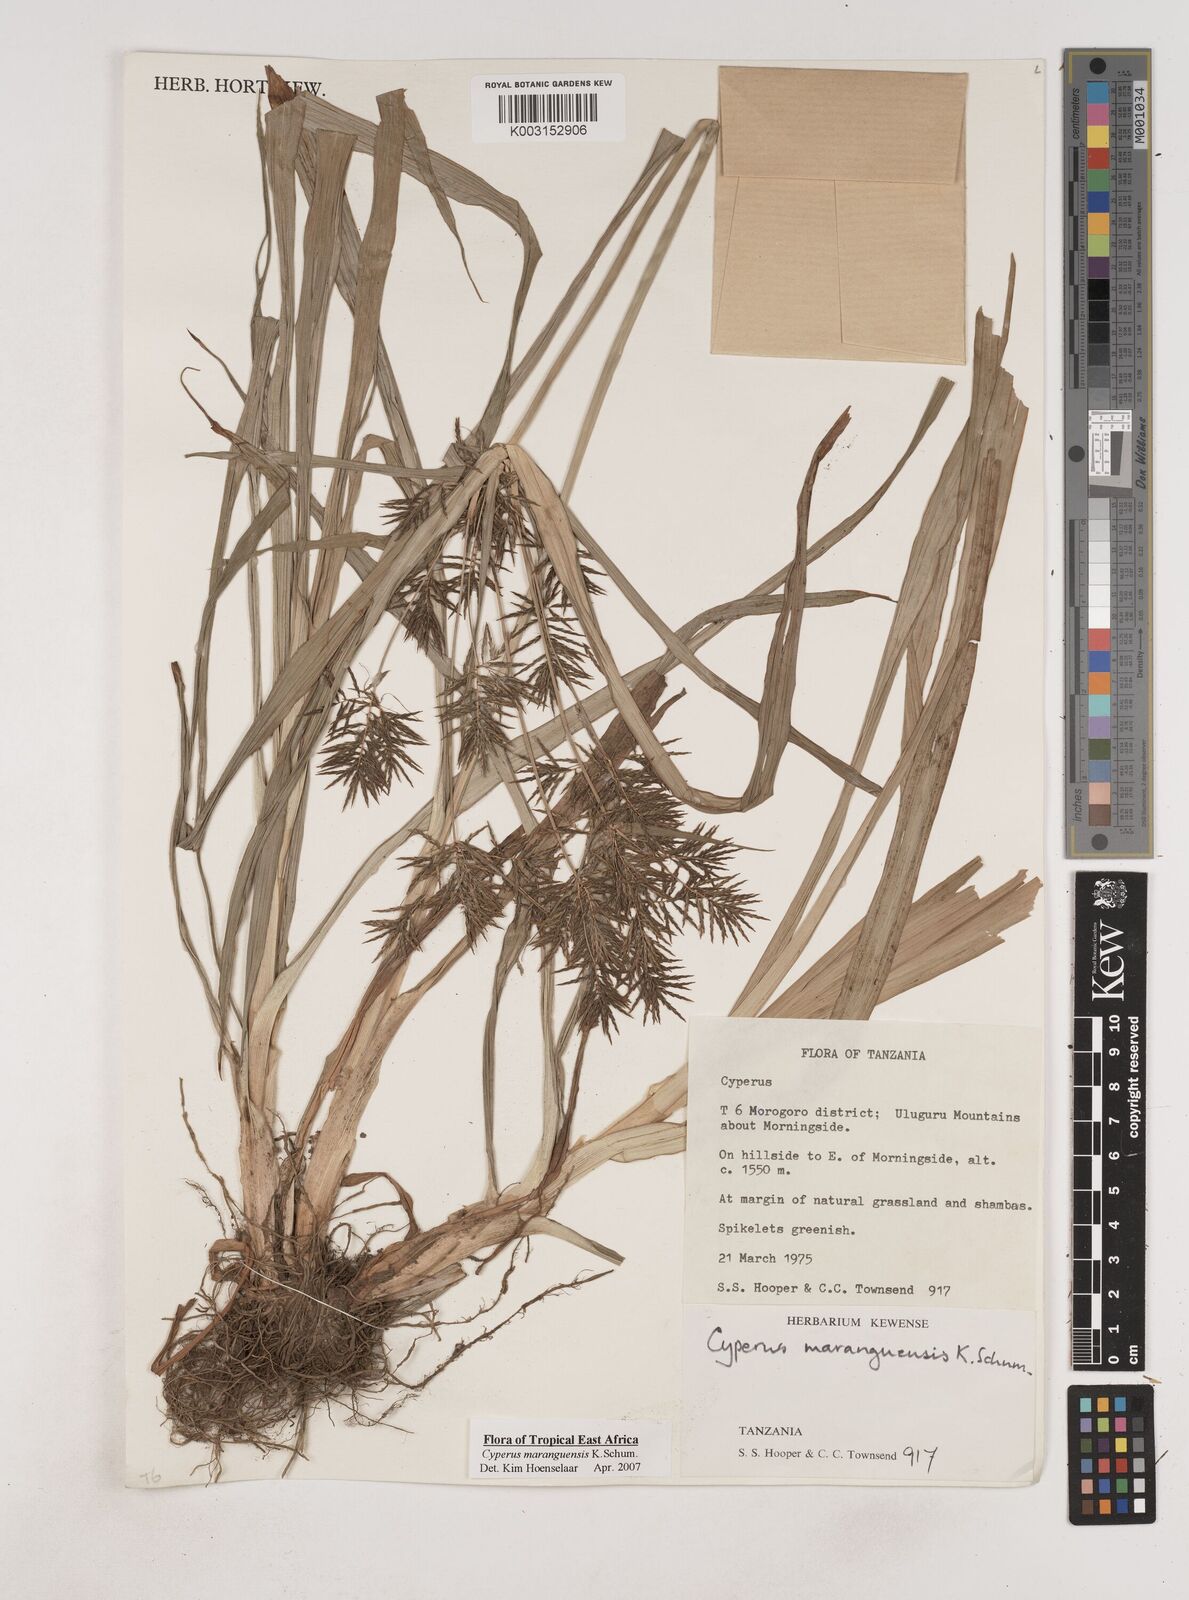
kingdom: Plantae
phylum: Tracheophyta
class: Liliopsida
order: Poales
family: Cyperaceae
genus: Cyperus
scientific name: Cyperus maranguensis
